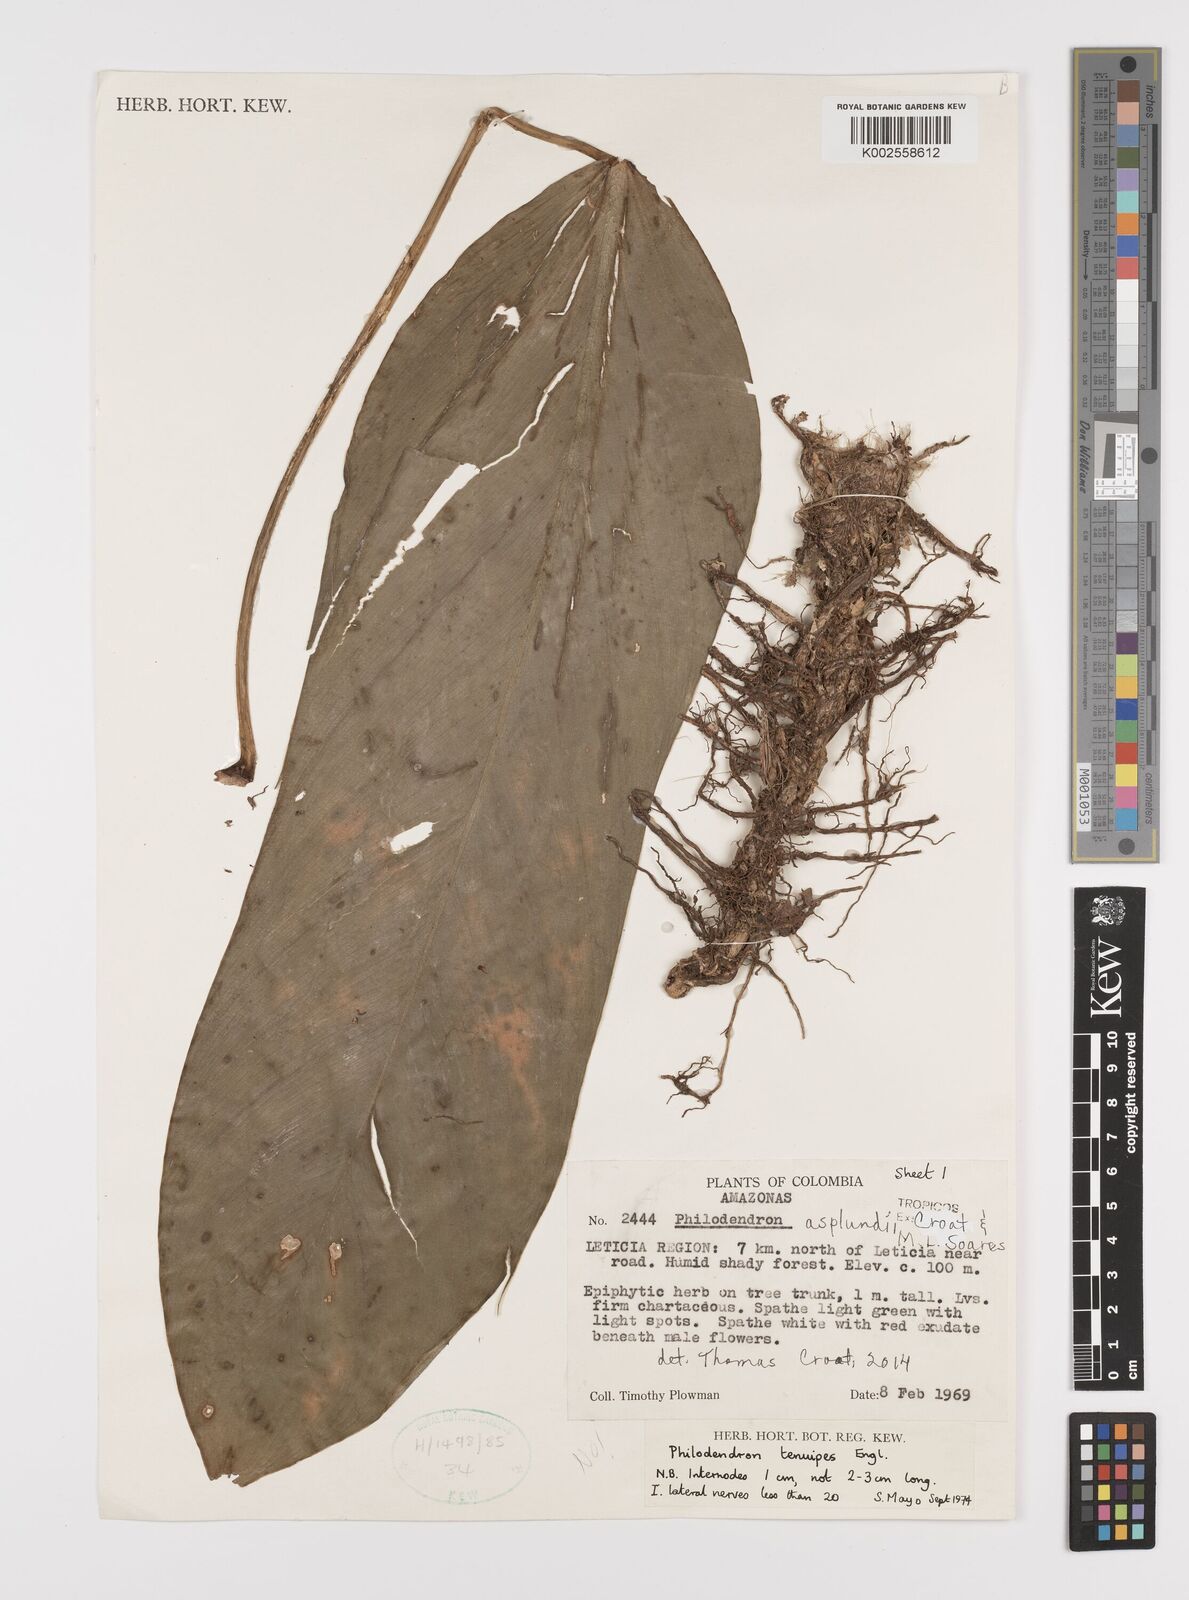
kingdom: Plantae
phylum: Tracheophyta
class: Liliopsida
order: Alismatales
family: Araceae
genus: Philodendron
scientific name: Philodendron asplundii
